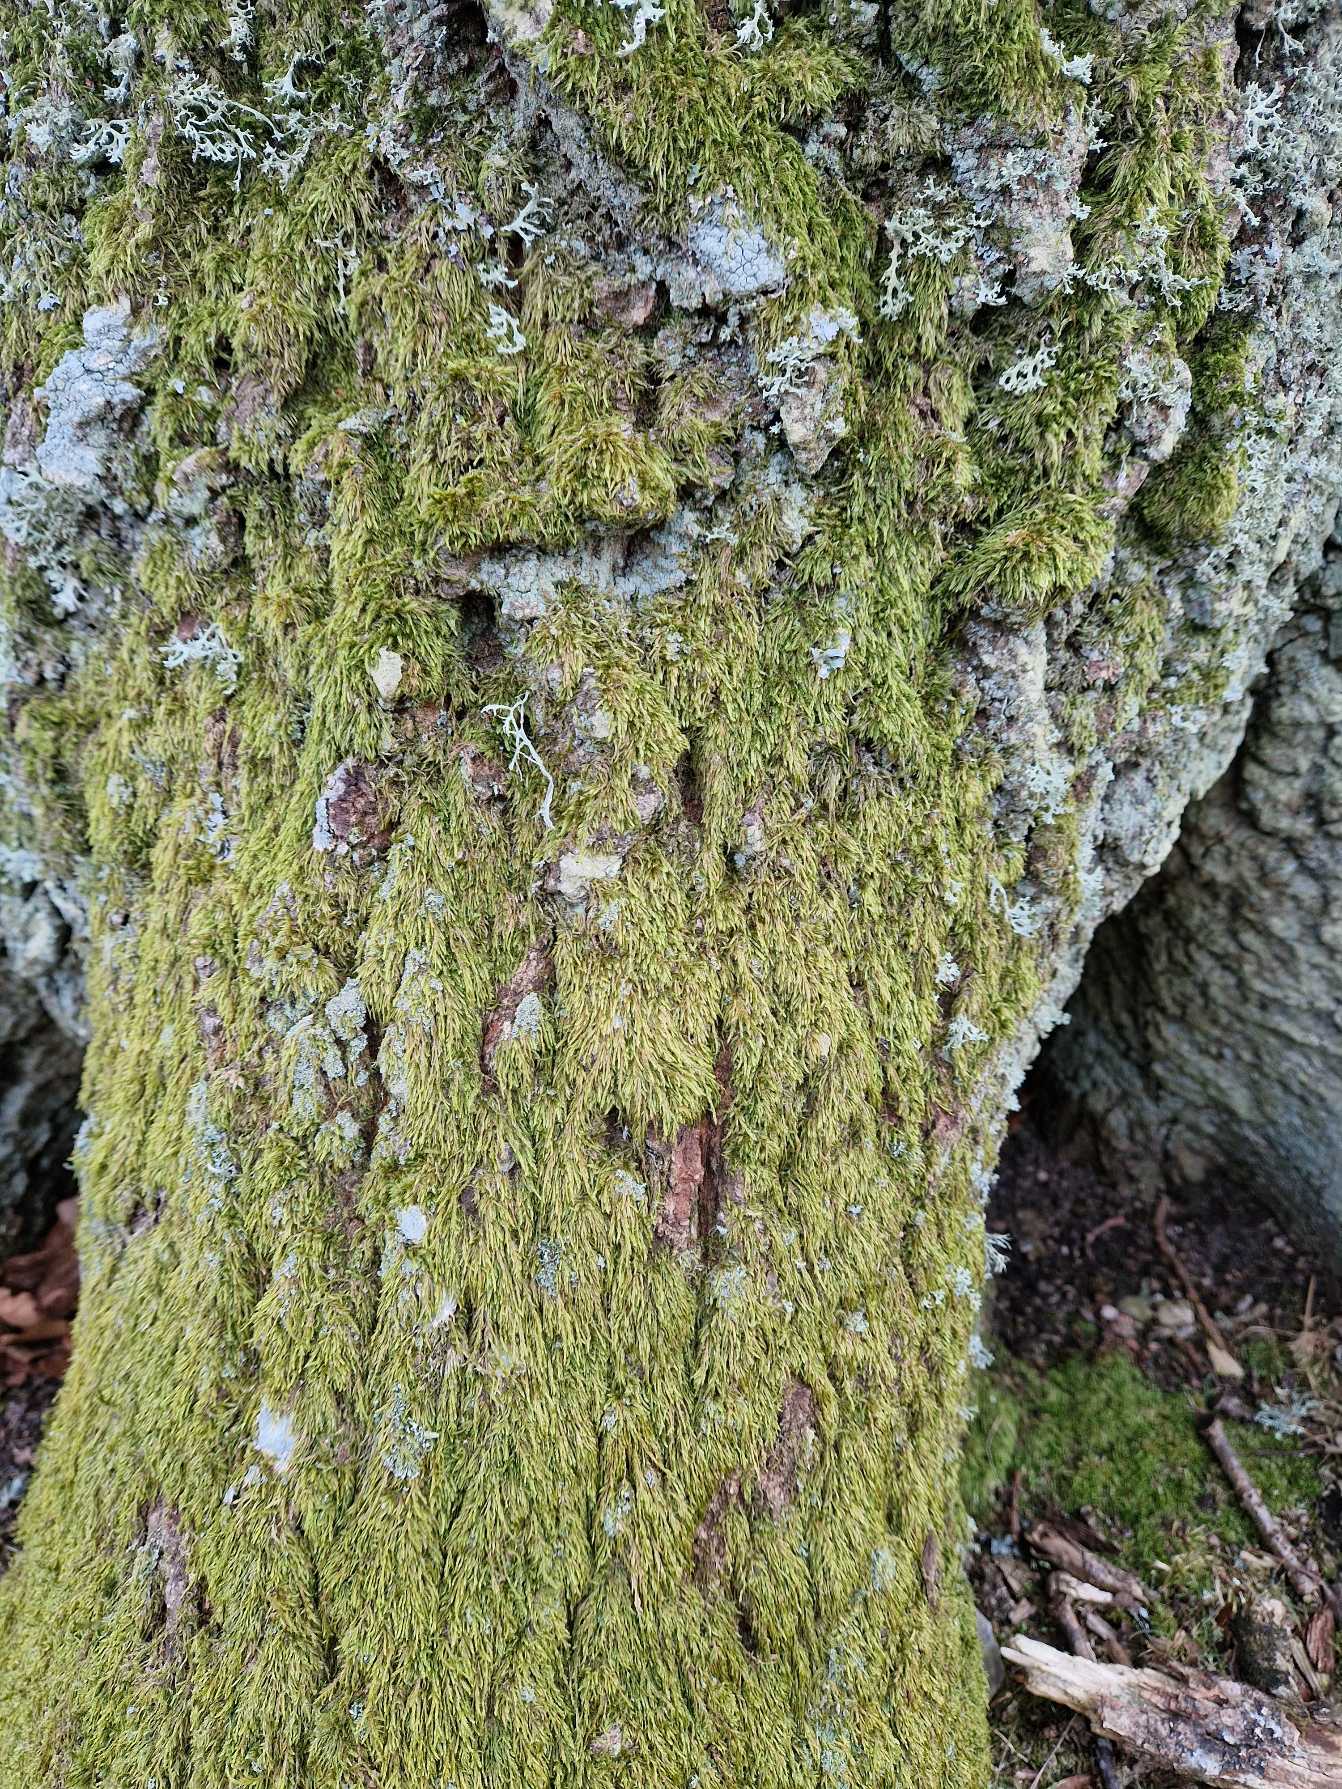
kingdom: Plantae
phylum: Bryophyta
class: Bryopsida
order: Hypnales
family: Hypnaceae
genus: Hypnum
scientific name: Hypnum
